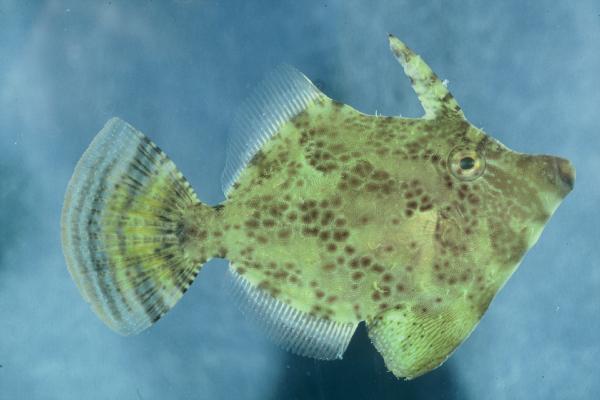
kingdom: Animalia
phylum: Chordata
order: Tetraodontiformes
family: Monacanthidae
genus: Monacanthus
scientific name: Monacanthus chinensis
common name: Centreboard leatherjacket
